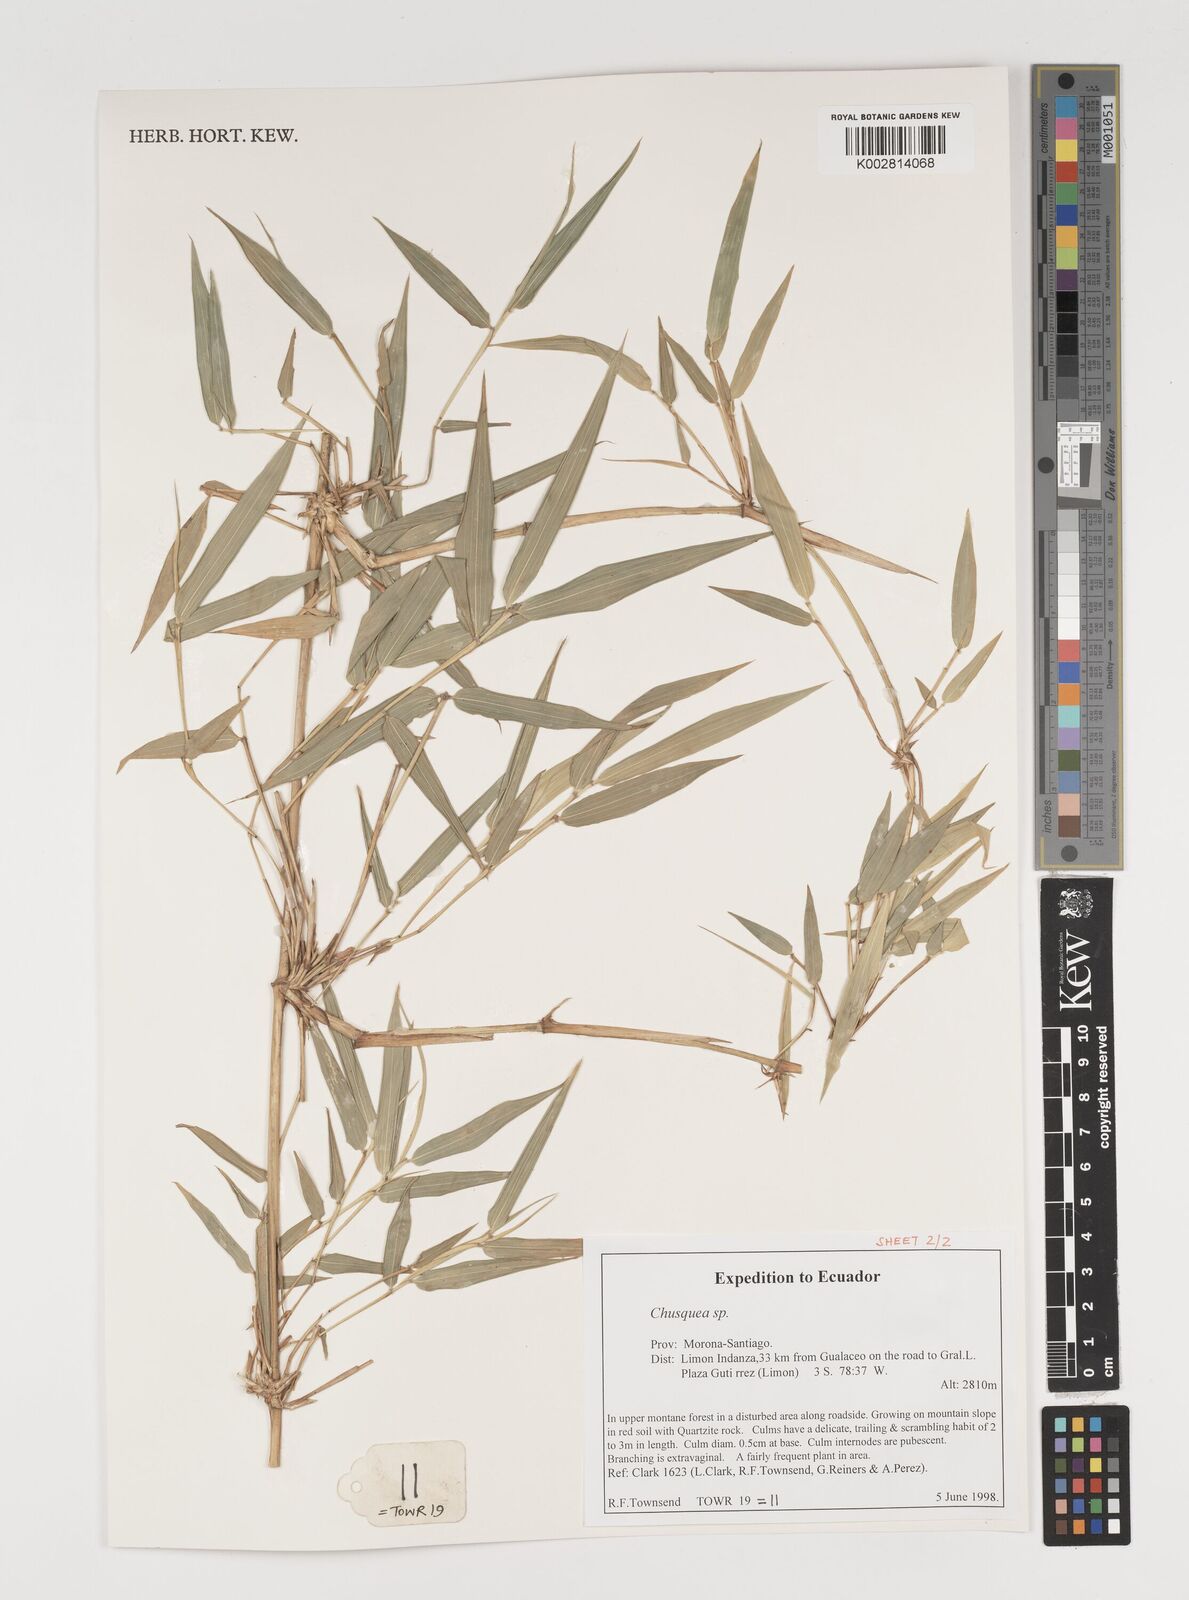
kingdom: Plantae
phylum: Tracheophyta
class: Liliopsida
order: Poales
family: Poaceae
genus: Chusquea
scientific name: Chusquea
